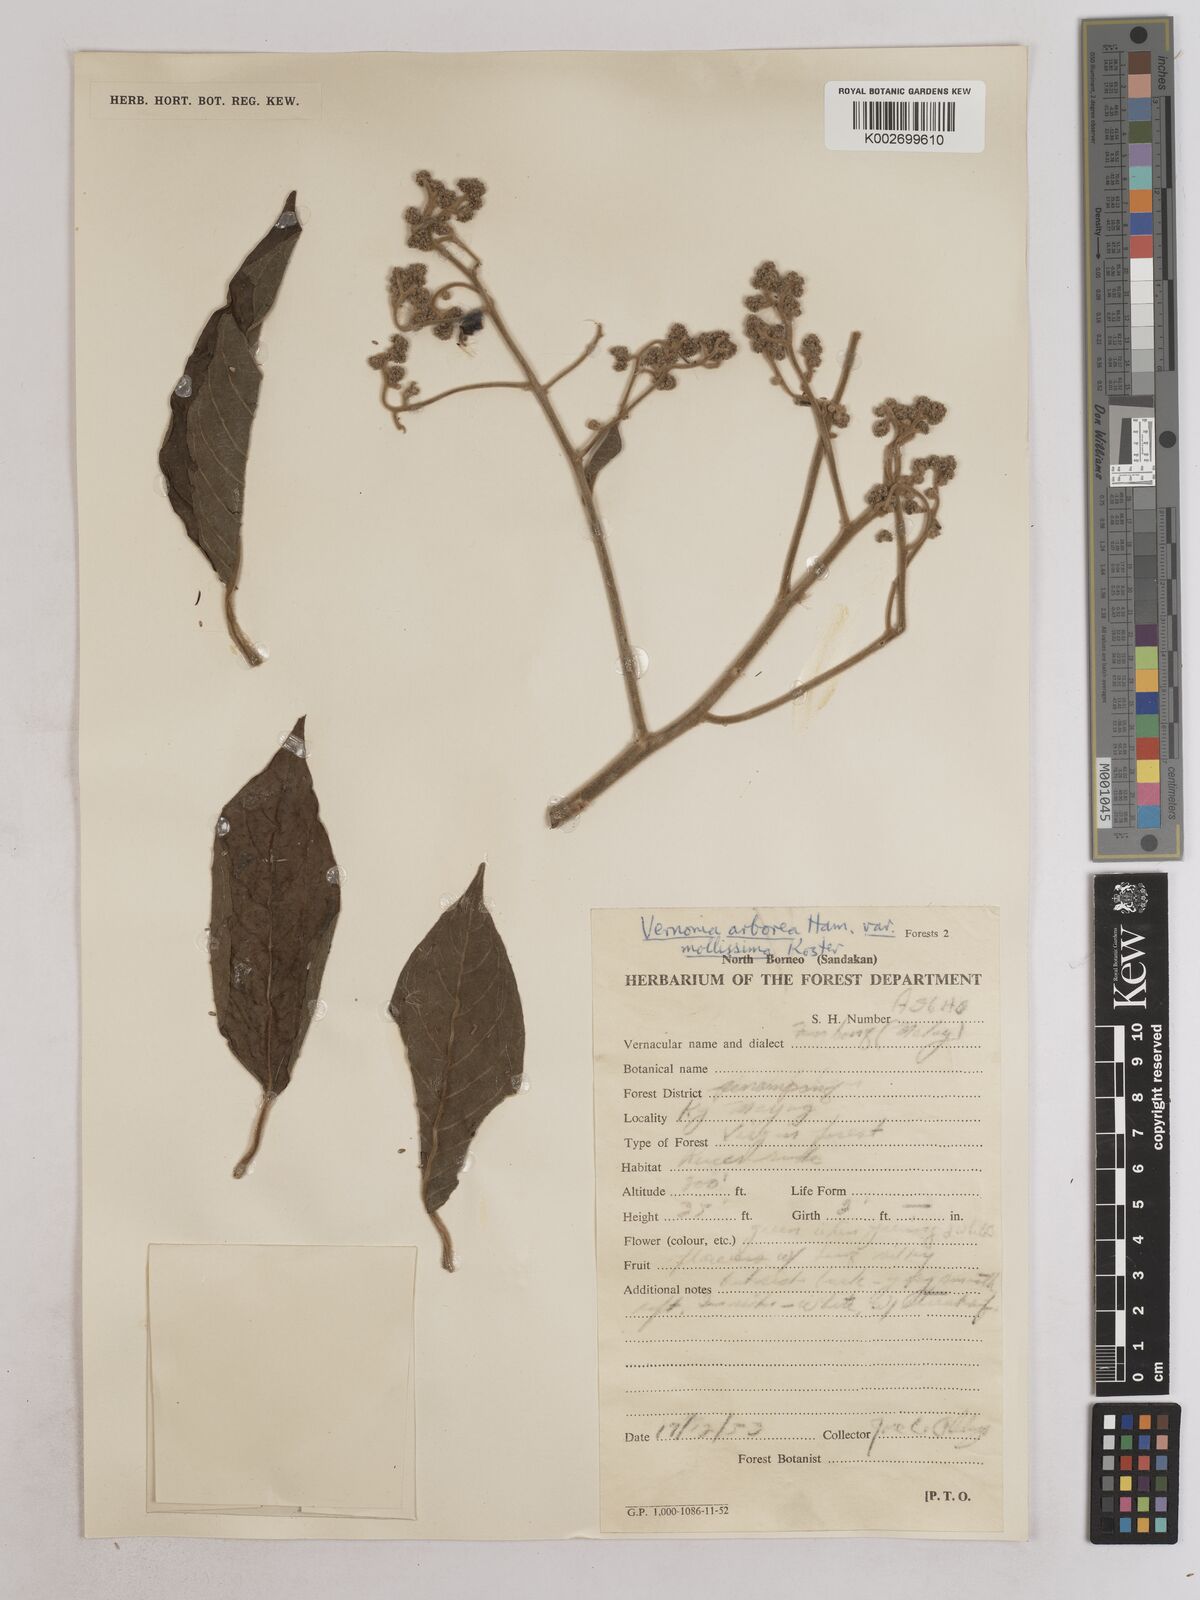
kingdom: Plantae
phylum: Tracheophyta
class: Magnoliopsida
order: Asterales
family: Asteraceae
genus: Strobocalyx
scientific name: Strobocalyx arborea
